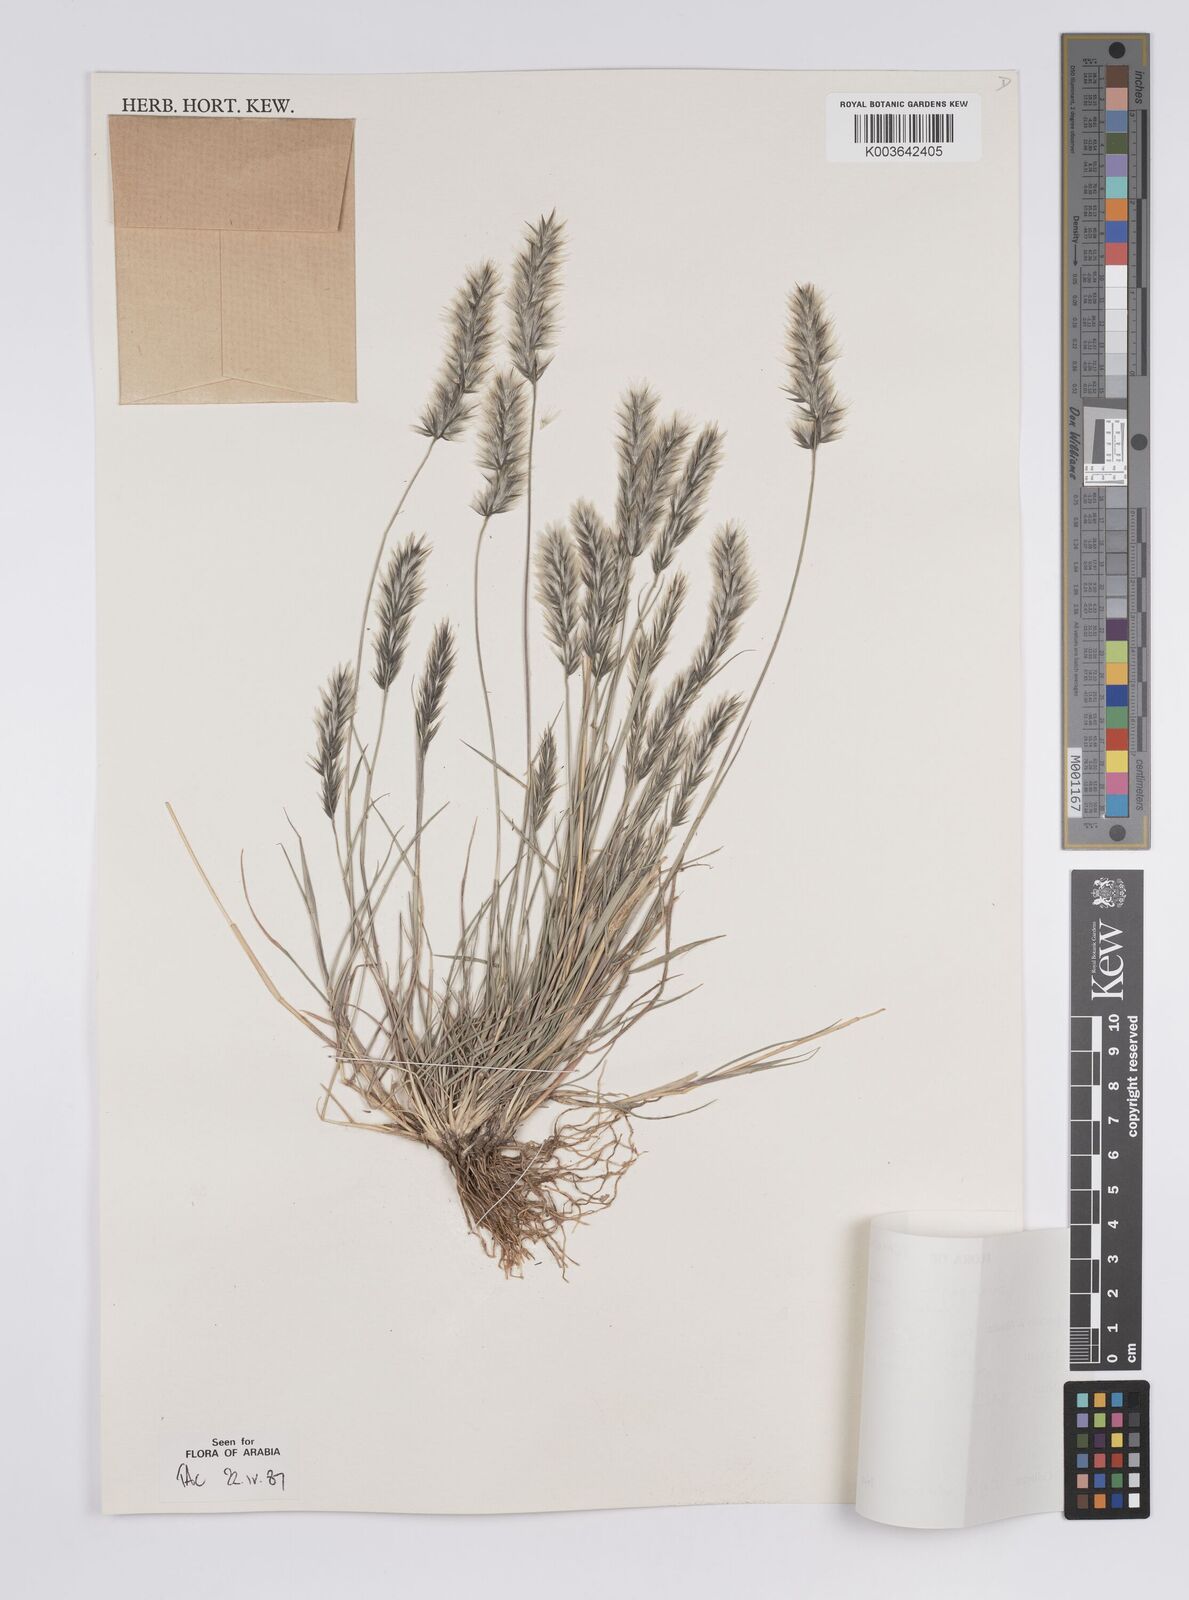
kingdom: Plantae
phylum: Tracheophyta
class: Liliopsida
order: Poales
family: Poaceae
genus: Enneapogon
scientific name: Enneapogon persicus
